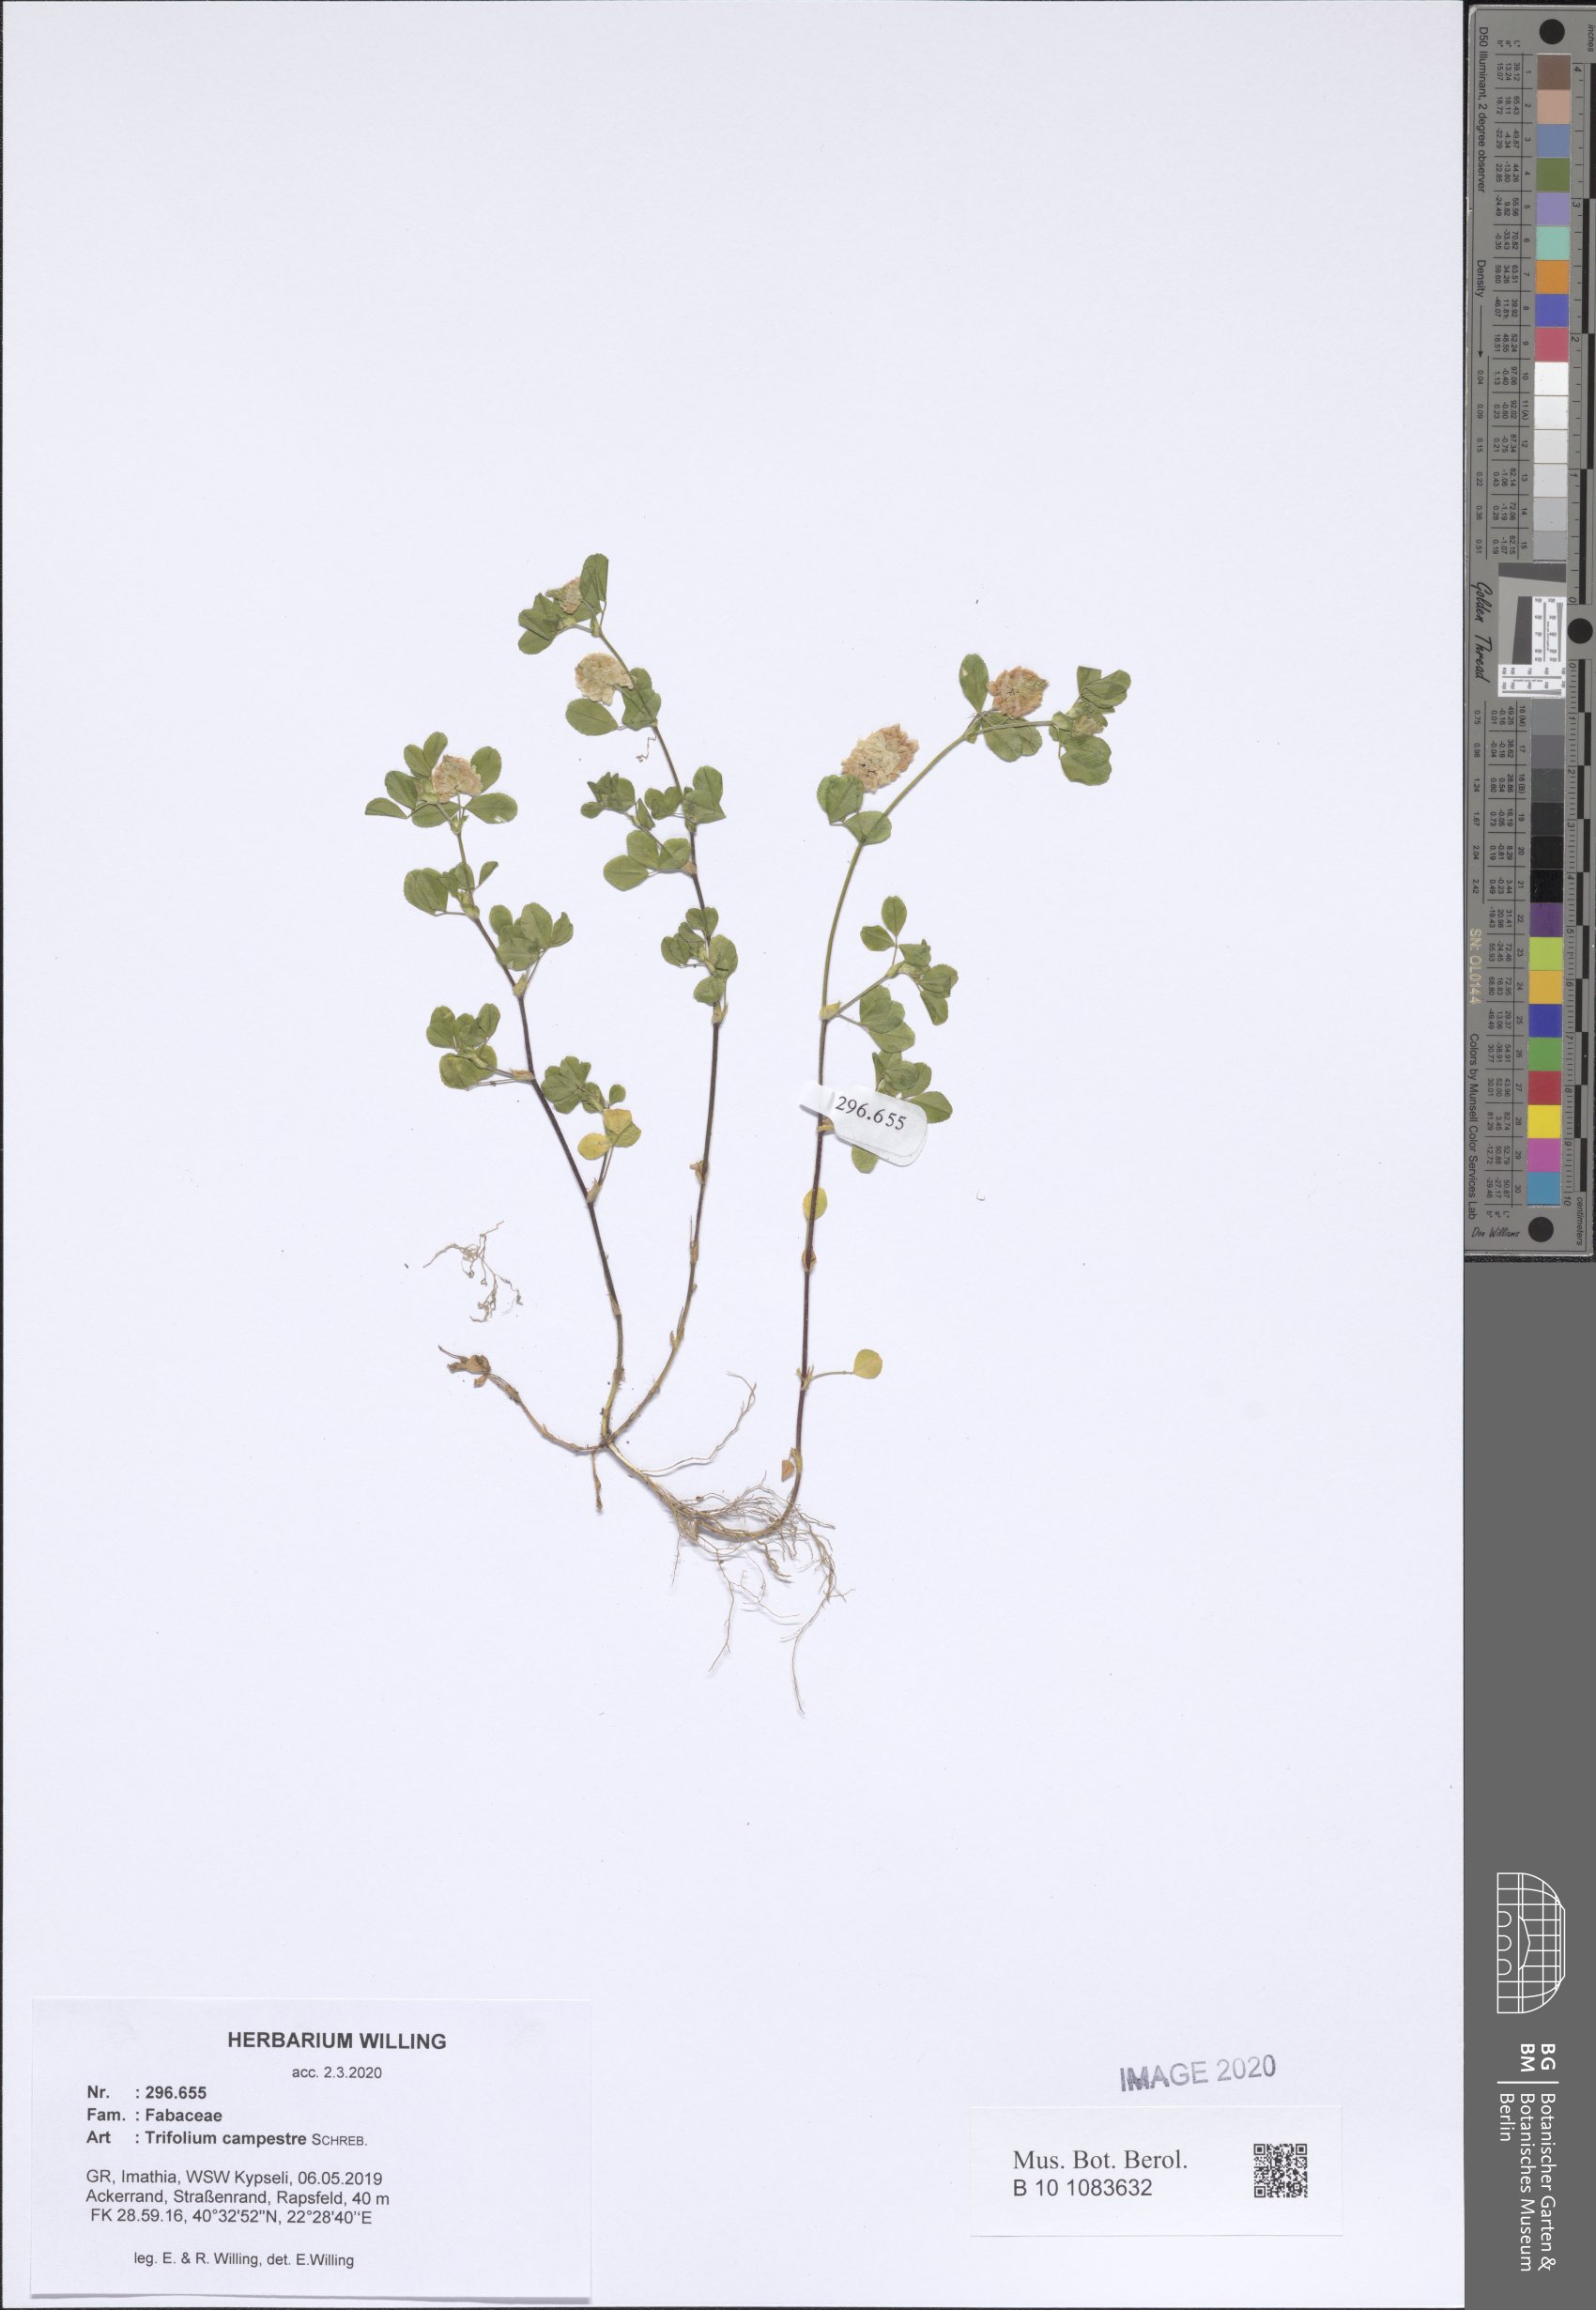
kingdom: Plantae
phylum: Tracheophyta
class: Magnoliopsida
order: Fabales
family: Fabaceae
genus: Trifolium
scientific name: Trifolium campestre
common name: Field clover
